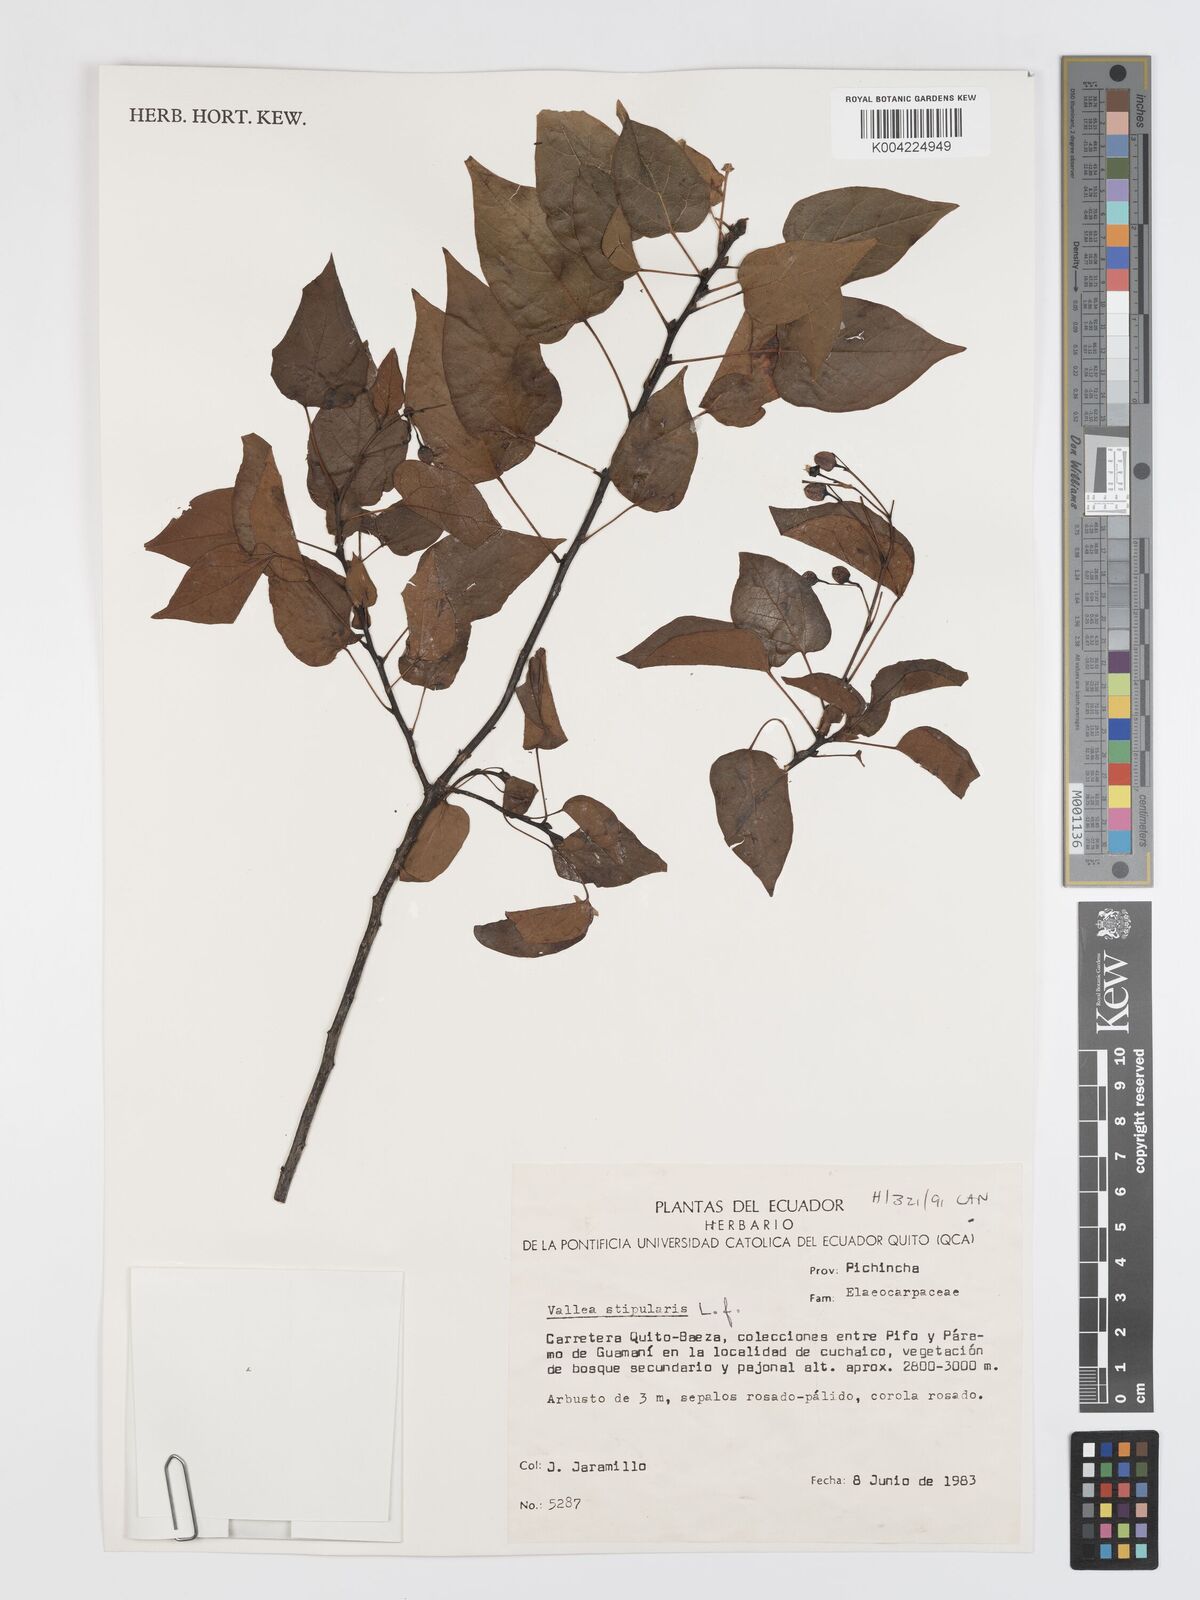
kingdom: Plantae
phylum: Tracheophyta
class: Magnoliopsida
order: Oxalidales
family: Elaeocarpaceae
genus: Vallea
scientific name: Vallea stipularis
